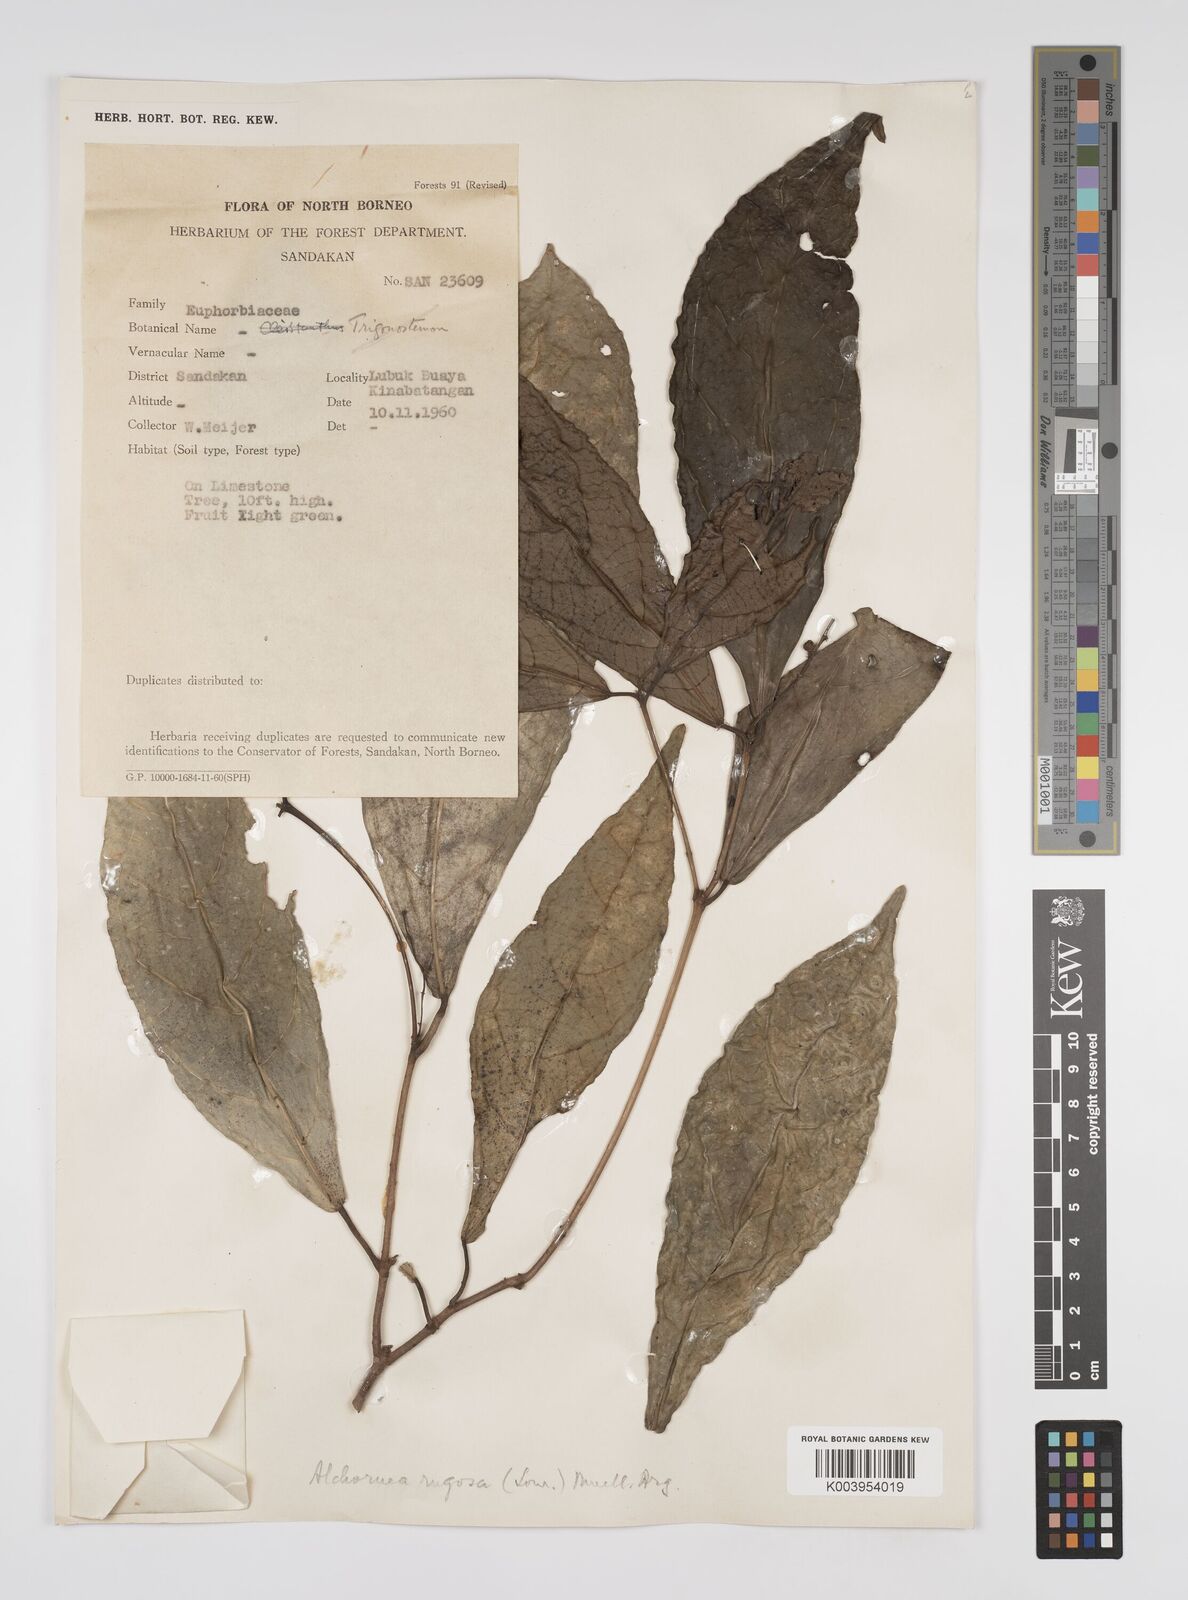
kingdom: Plantae
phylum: Tracheophyta
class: Magnoliopsida
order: Malpighiales
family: Euphorbiaceae
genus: Alchornea
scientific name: Alchornea rugosa
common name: Alchorntree
